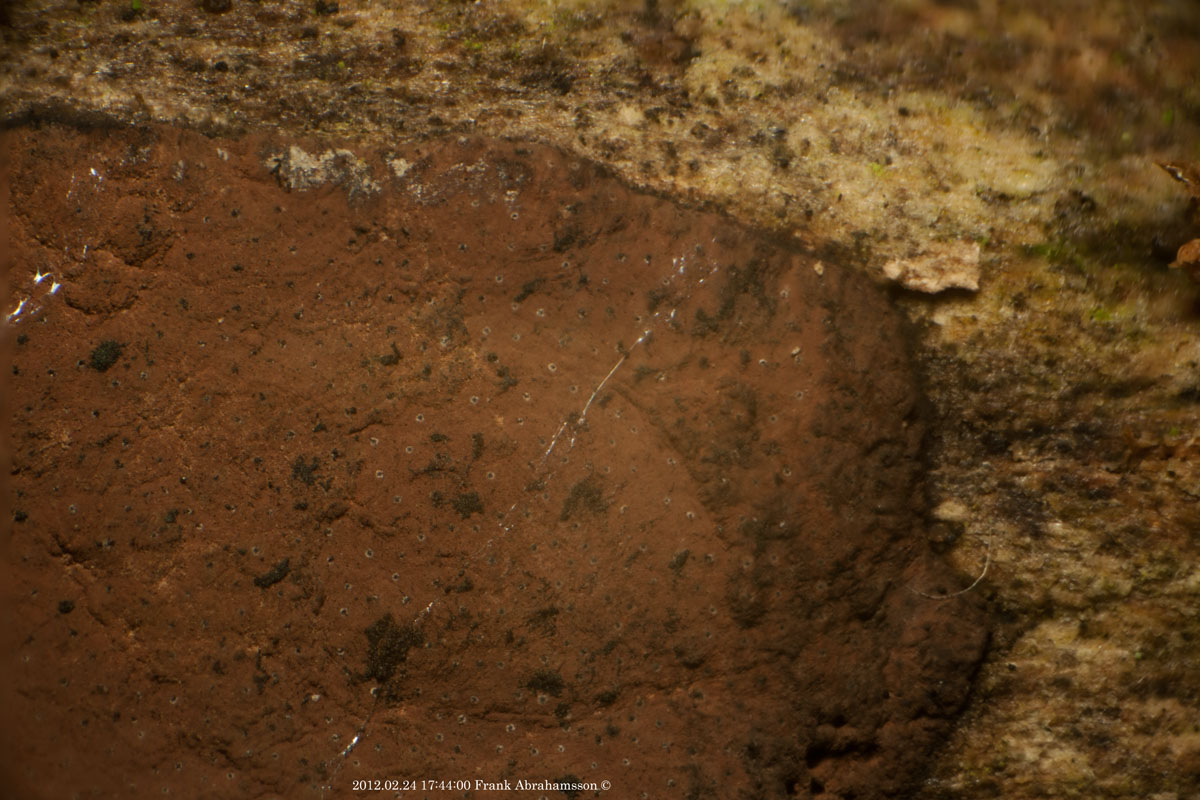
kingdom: Fungi
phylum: Ascomycota
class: Sordariomycetes
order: Xylariales
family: Hypoxylaceae
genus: Hypoxylon
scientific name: Hypoxylon petriniae
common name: nedsænket kulbær
